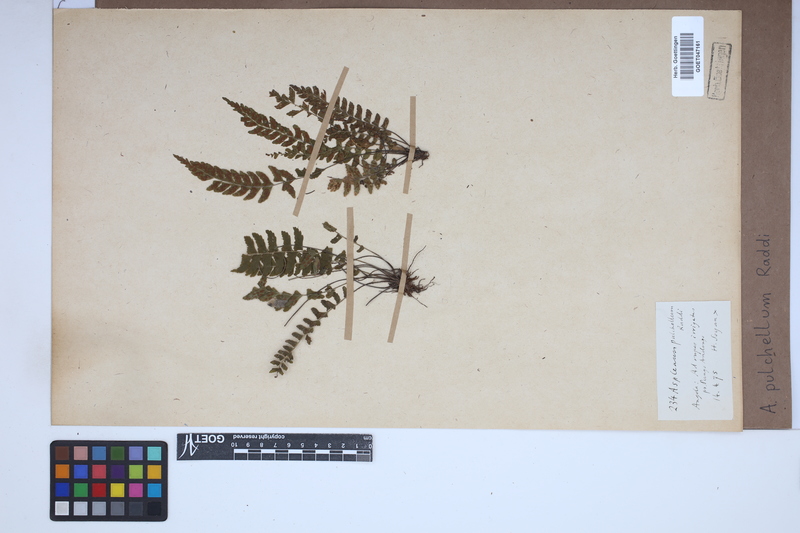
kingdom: Plantae
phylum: Tracheophyta
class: Polypodiopsida
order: Polypodiales
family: Aspleniaceae
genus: Asplenium
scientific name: Asplenium pulchellum
